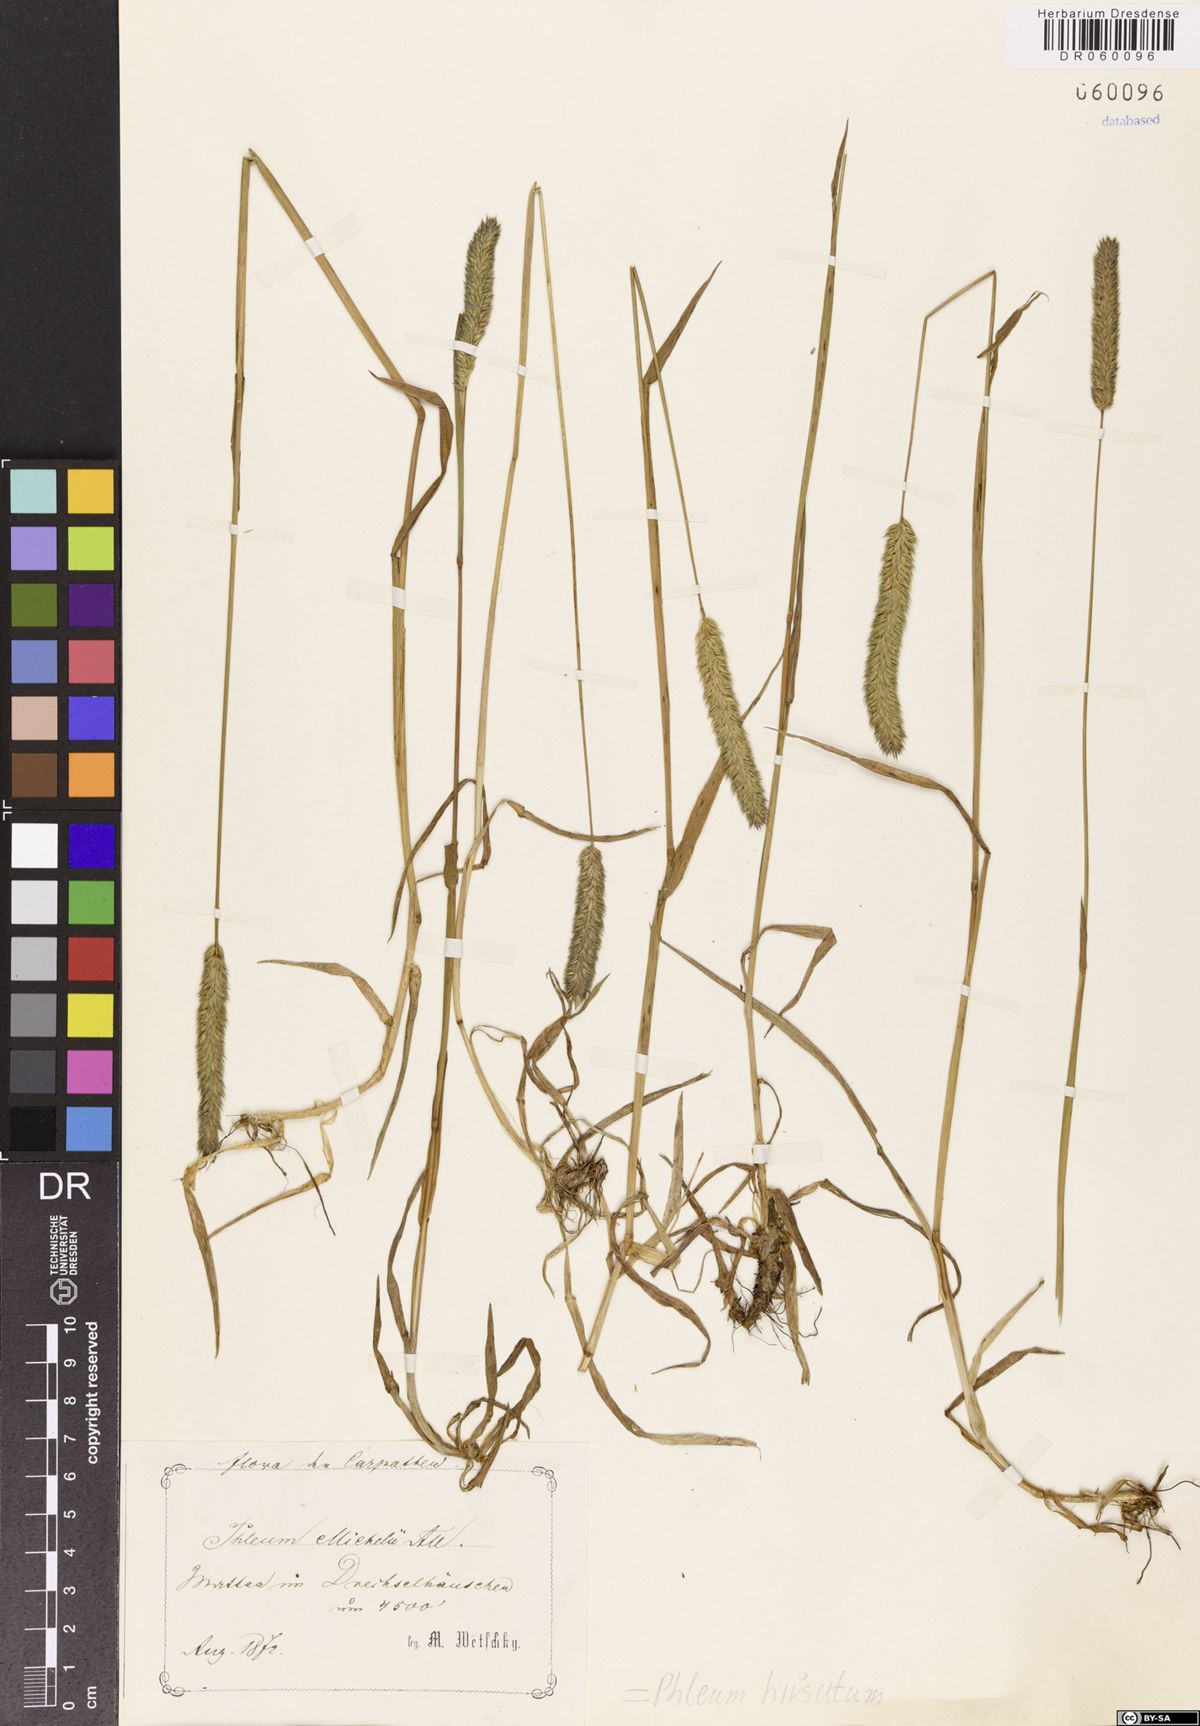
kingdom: Plantae
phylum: Tracheophyta
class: Liliopsida
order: Poales
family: Poaceae
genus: Phleum
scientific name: Phleum hirsutum
